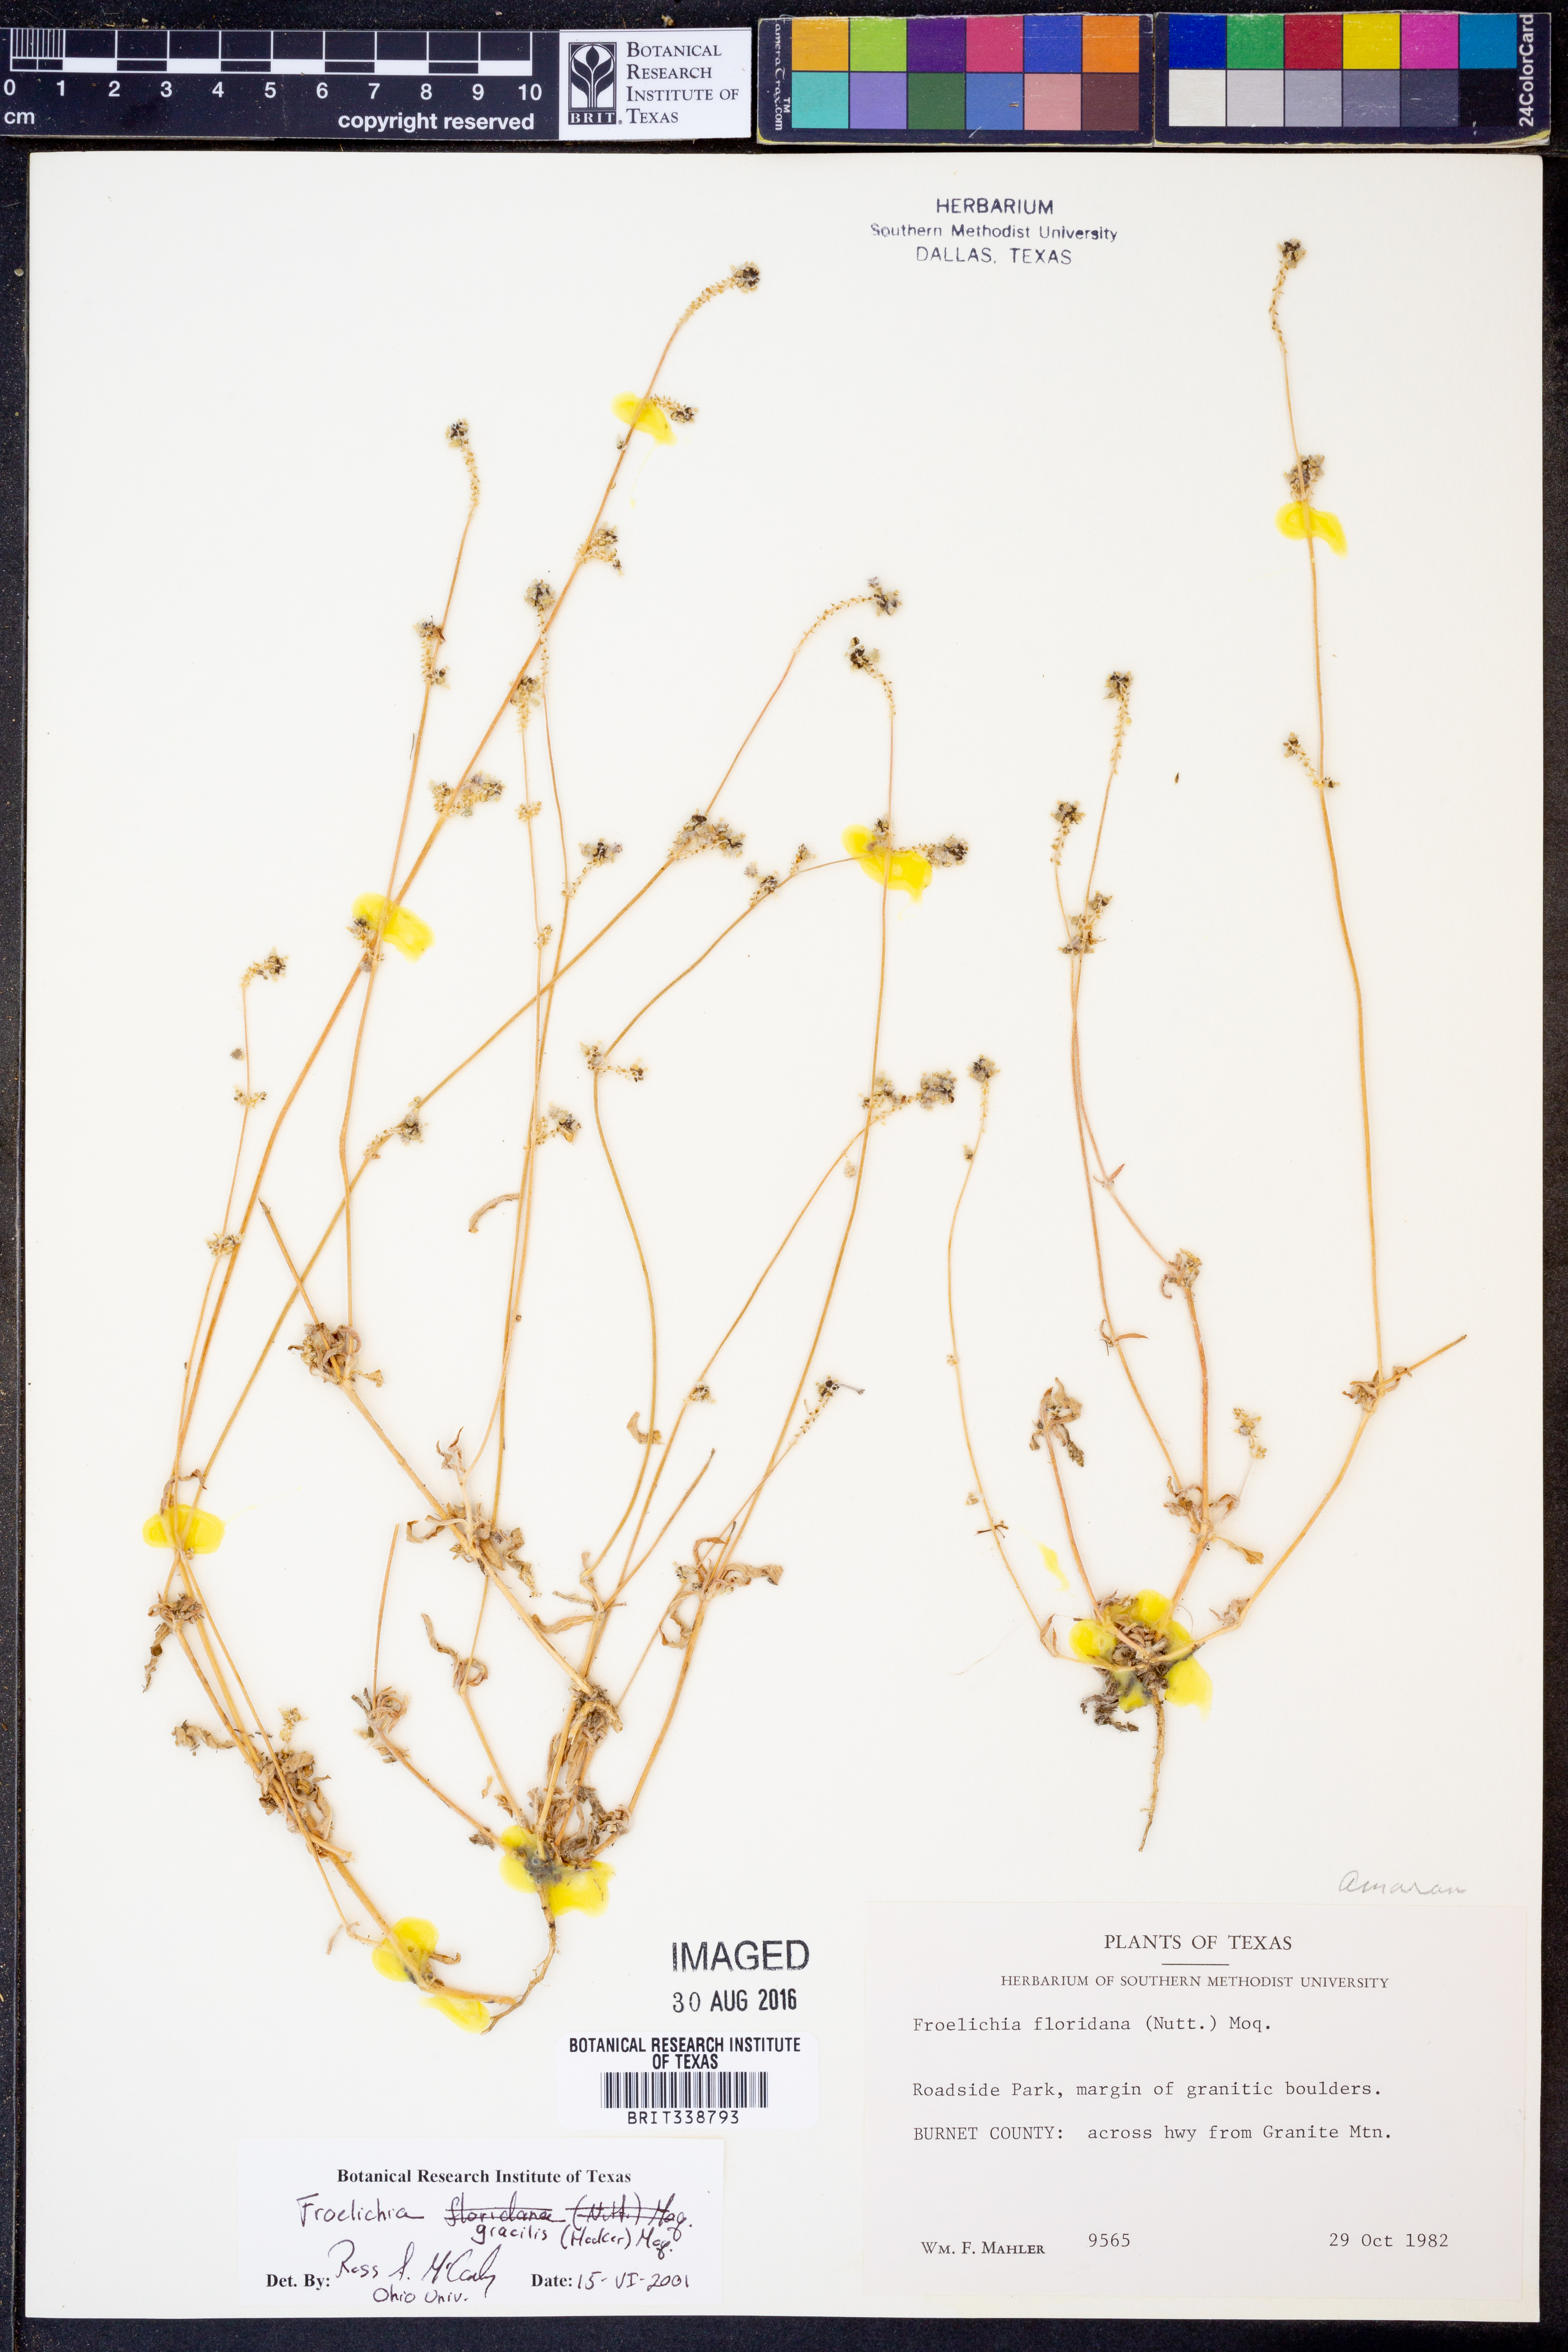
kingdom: Plantae
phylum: Tracheophyta
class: Magnoliopsida
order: Caryophyllales
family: Amaranthaceae
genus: Froelichia
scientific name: Froelichia gracilis
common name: Slender cottonweed
